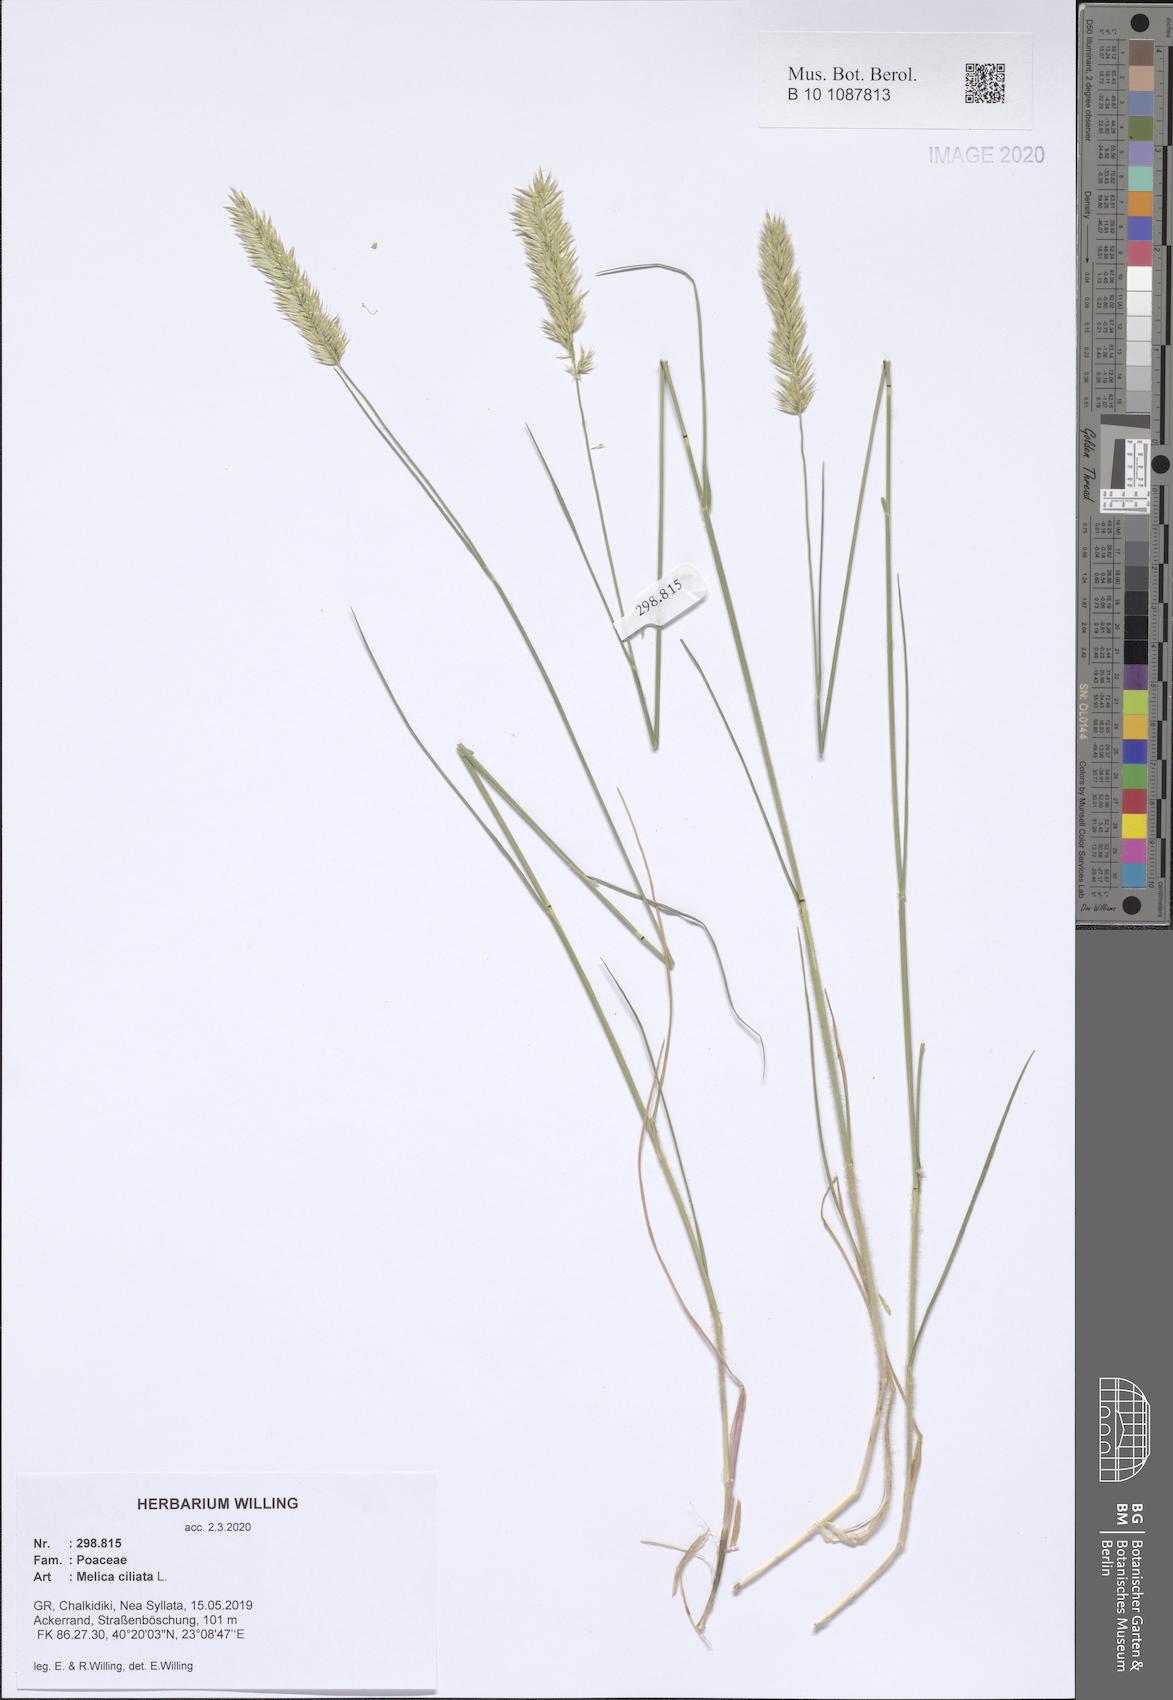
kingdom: Plantae
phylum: Tracheophyta
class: Liliopsida
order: Poales
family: Poaceae
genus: Melica
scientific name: Melica ciliata
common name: Hairy melicgrass
